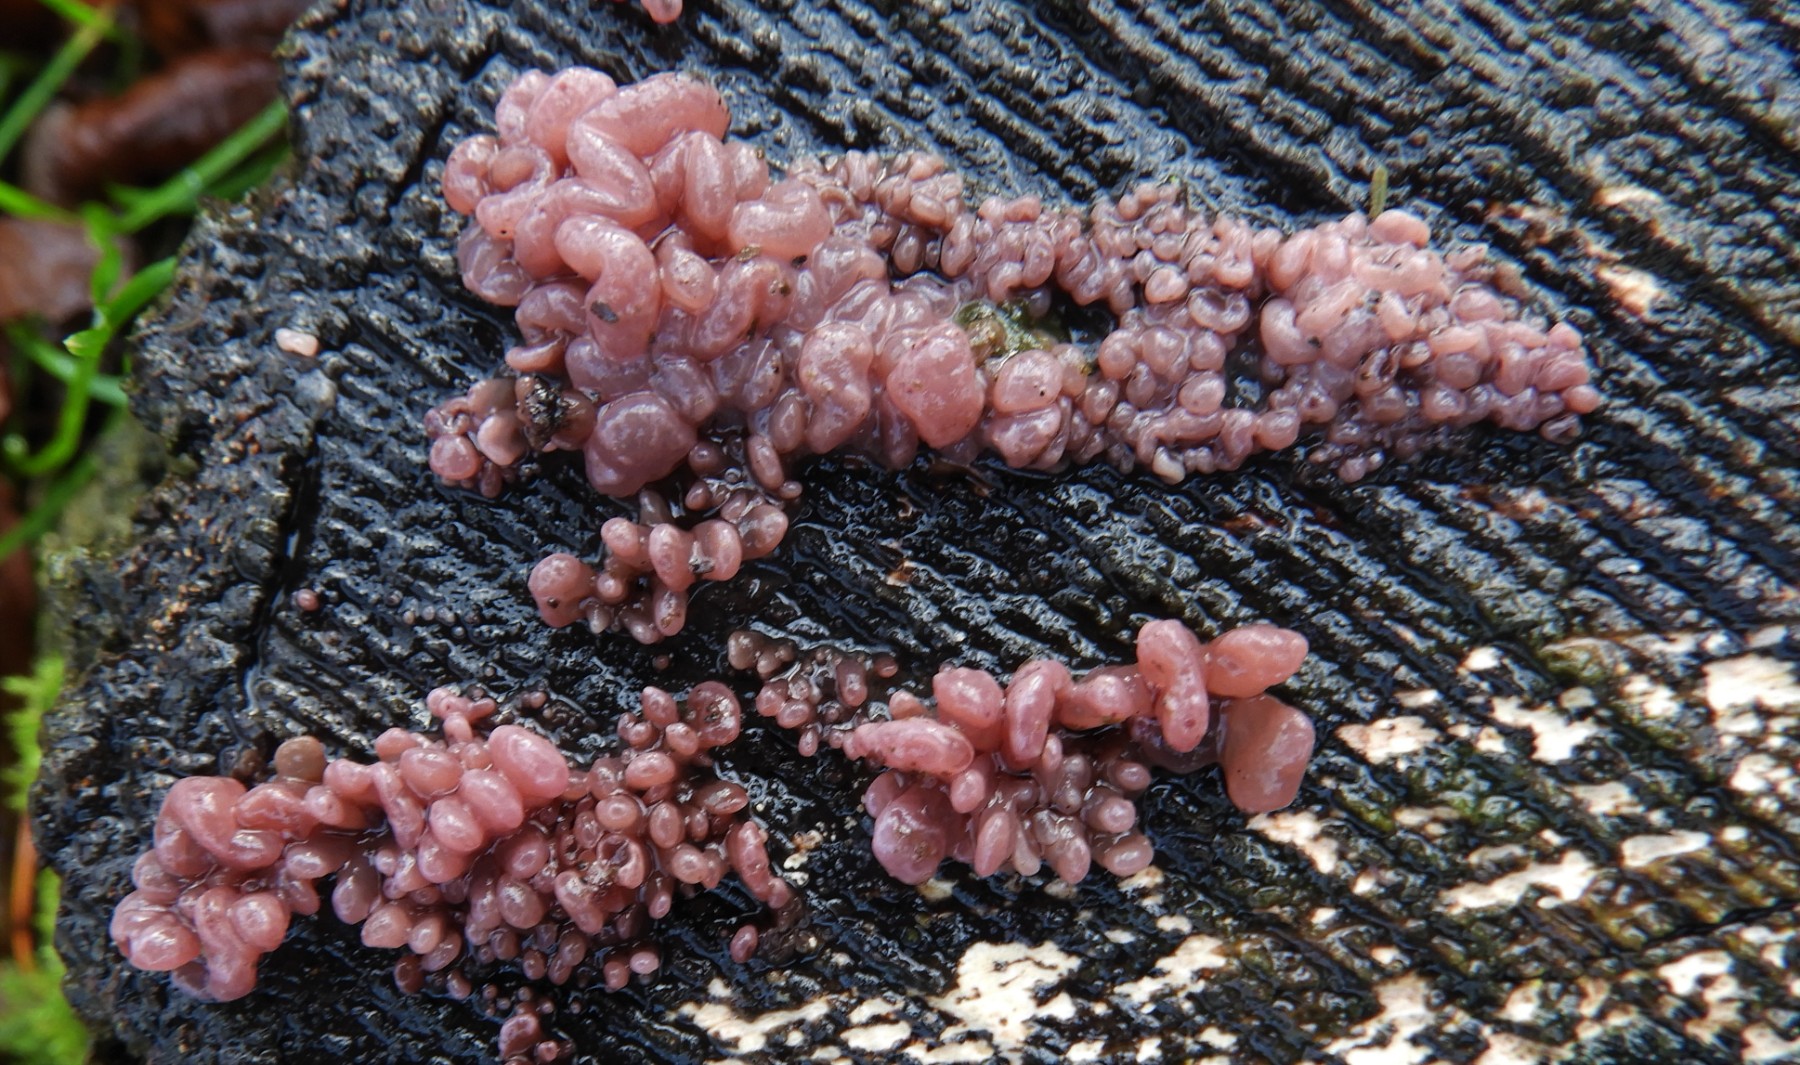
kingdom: Fungi
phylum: Ascomycota
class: Leotiomycetes
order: Helotiales
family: Gelatinodiscaceae
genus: Ascocoryne
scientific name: Ascocoryne sarcoides
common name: rødlilla sejskive
